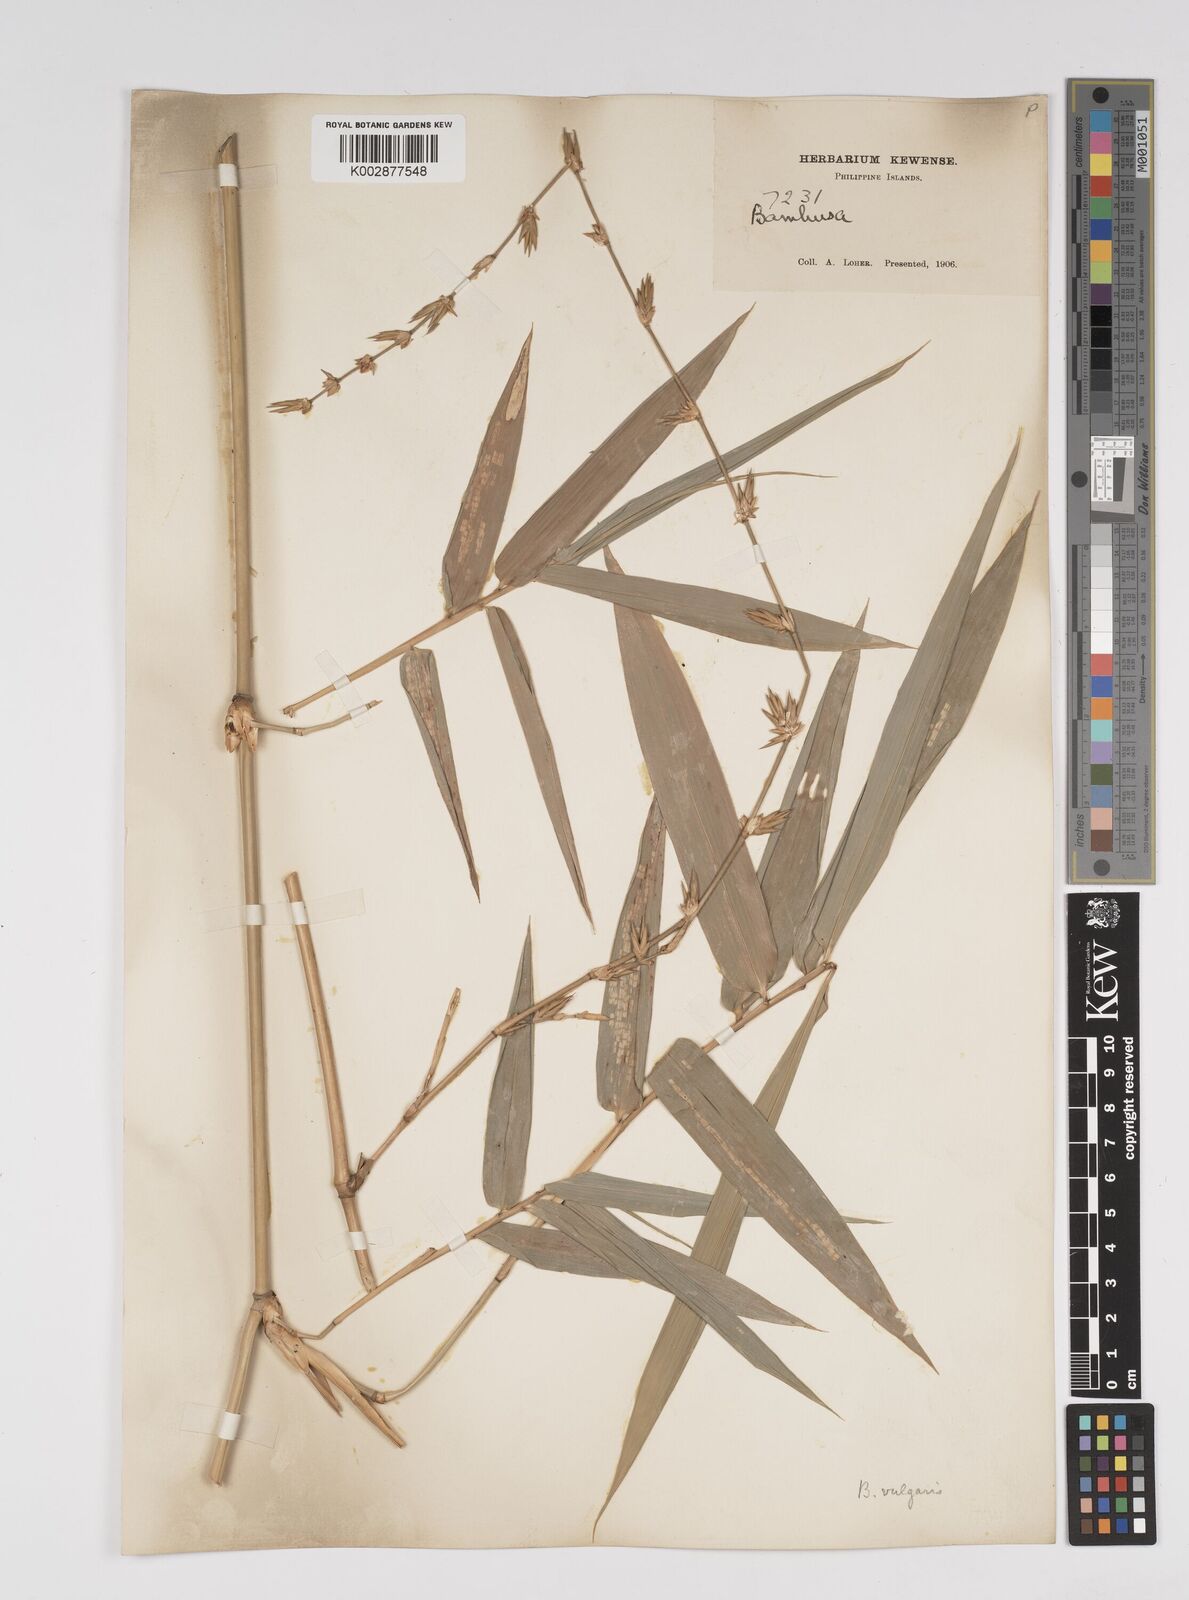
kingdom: Plantae
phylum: Tracheophyta
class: Liliopsida
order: Poales
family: Poaceae
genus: Bambusa
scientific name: Bambusa vulgaris
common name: Common bamboo
